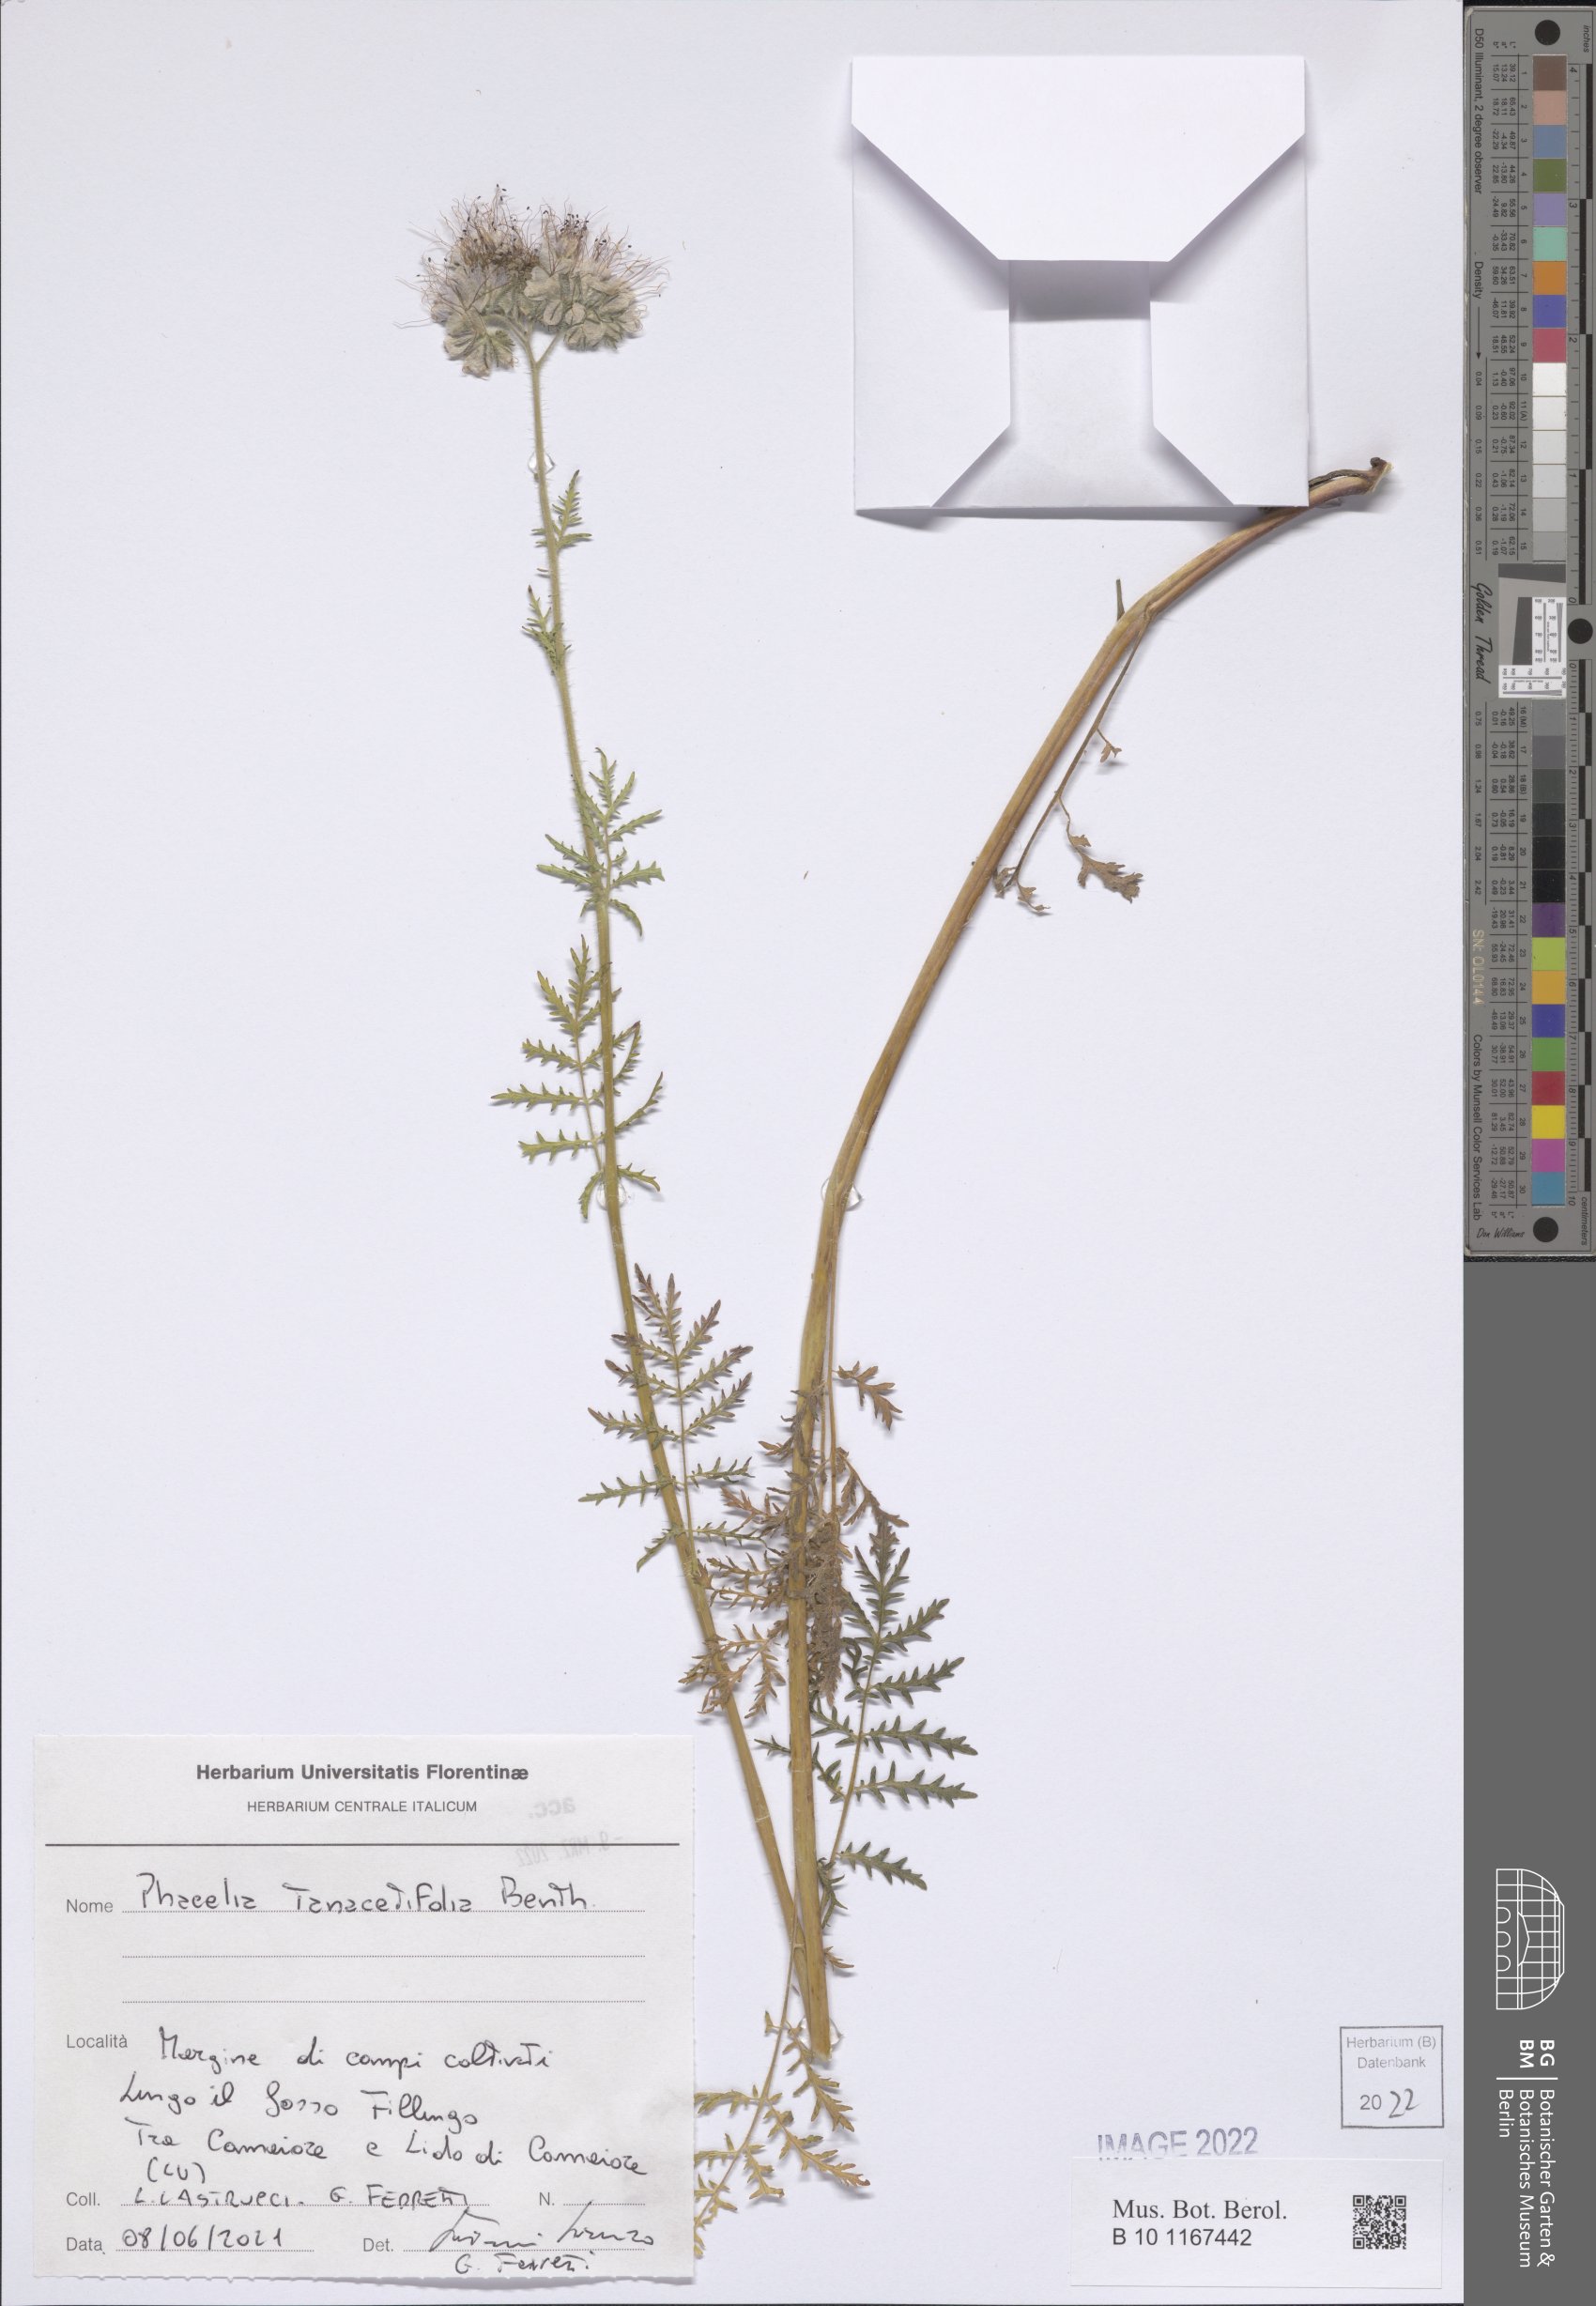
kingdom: Plantae
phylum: Tracheophyta
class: Magnoliopsida
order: Boraginales
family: Hydrophyllaceae
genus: Phacelia
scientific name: Phacelia tanacetifolia
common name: Phacelia
